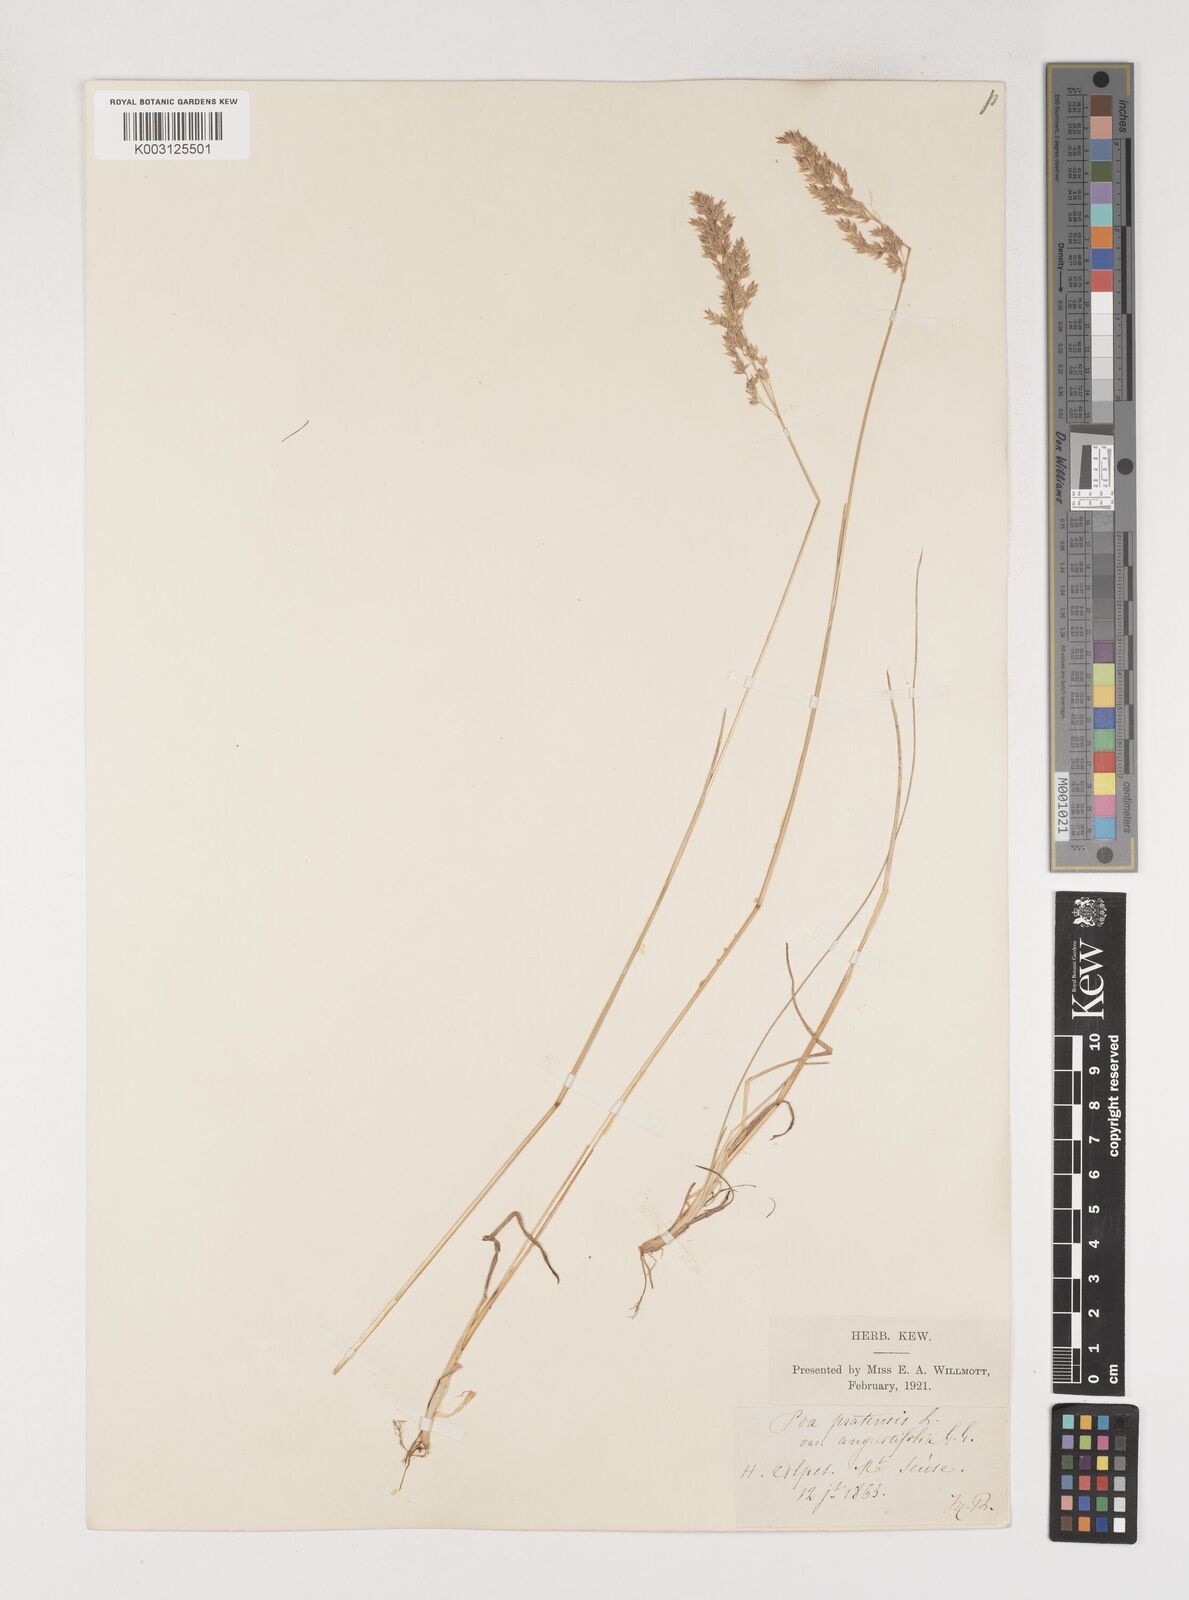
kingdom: Plantae
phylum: Tracheophyta
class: Liliopsida
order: Poales
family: Poaceae
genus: Poa
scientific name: Poa angustifolia
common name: Narrow-leaved meadow-grass
